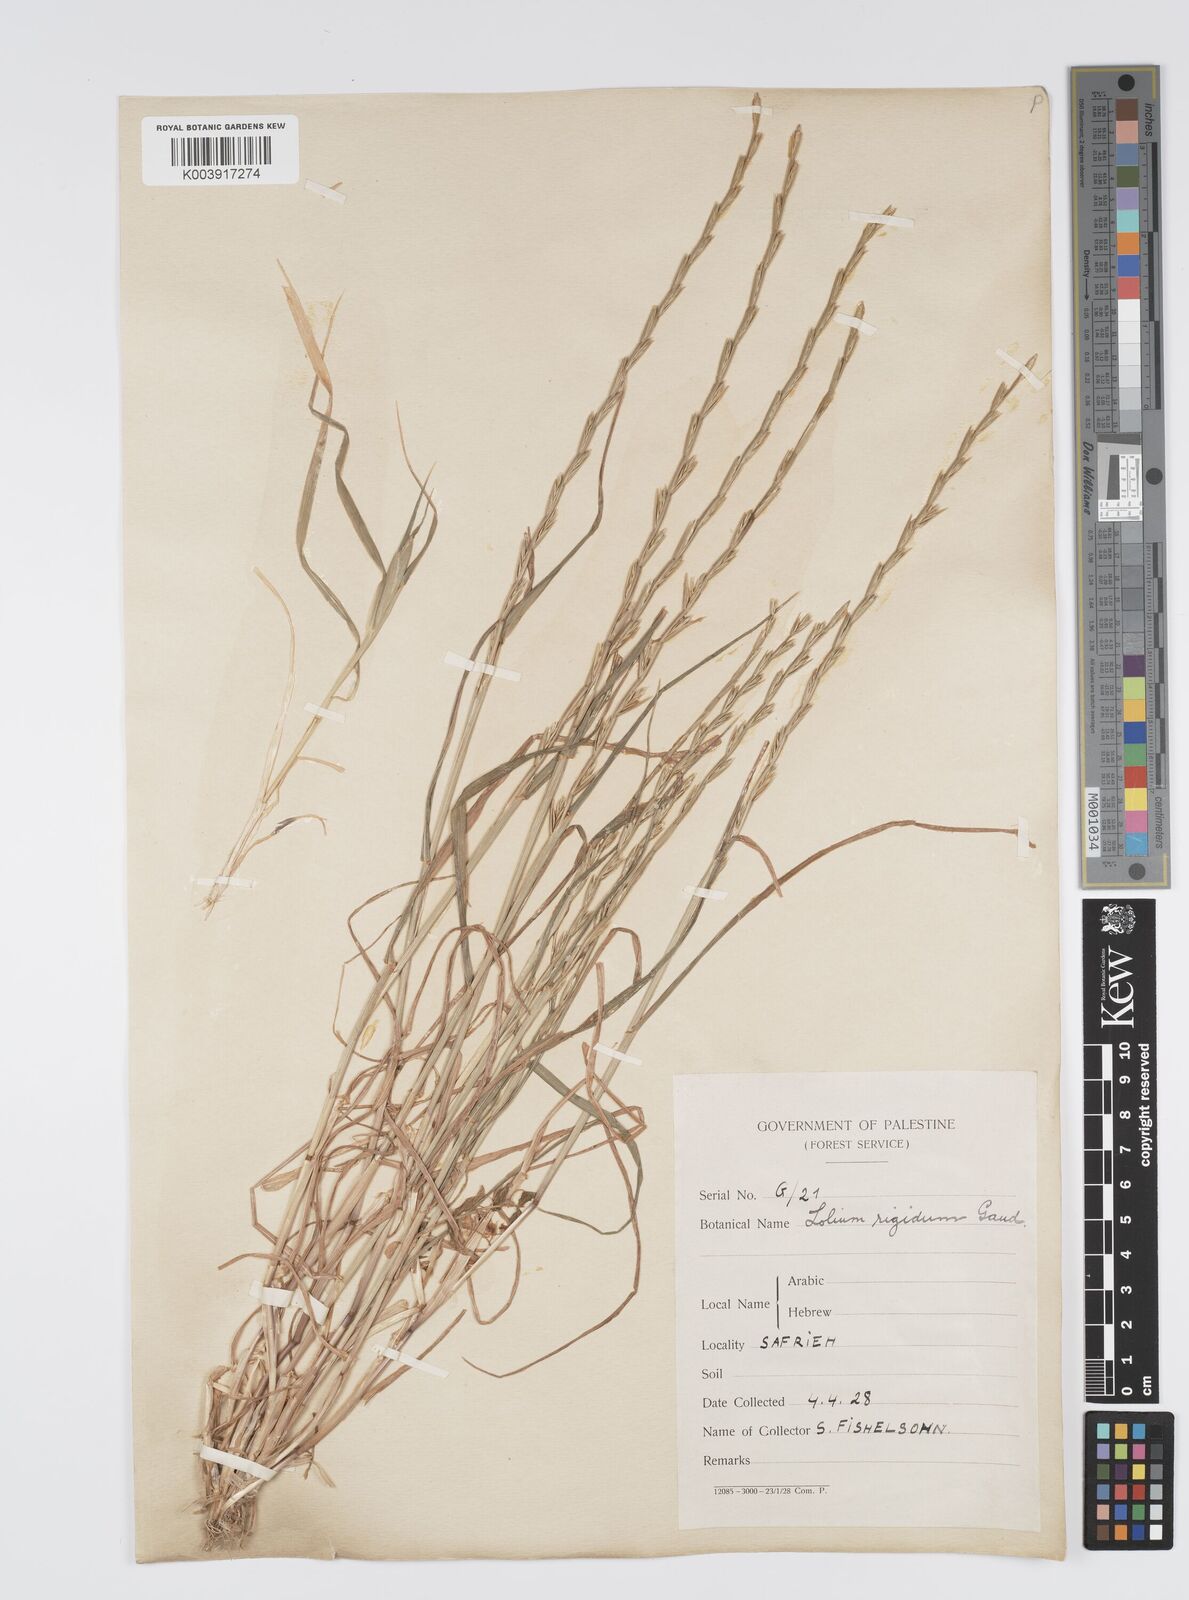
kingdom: Plantae
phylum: Tracheophyta
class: Liliopsida
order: Poales
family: Poaceae
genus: Lolium
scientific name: Lolium rigidum
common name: Wimmera ryegrass
